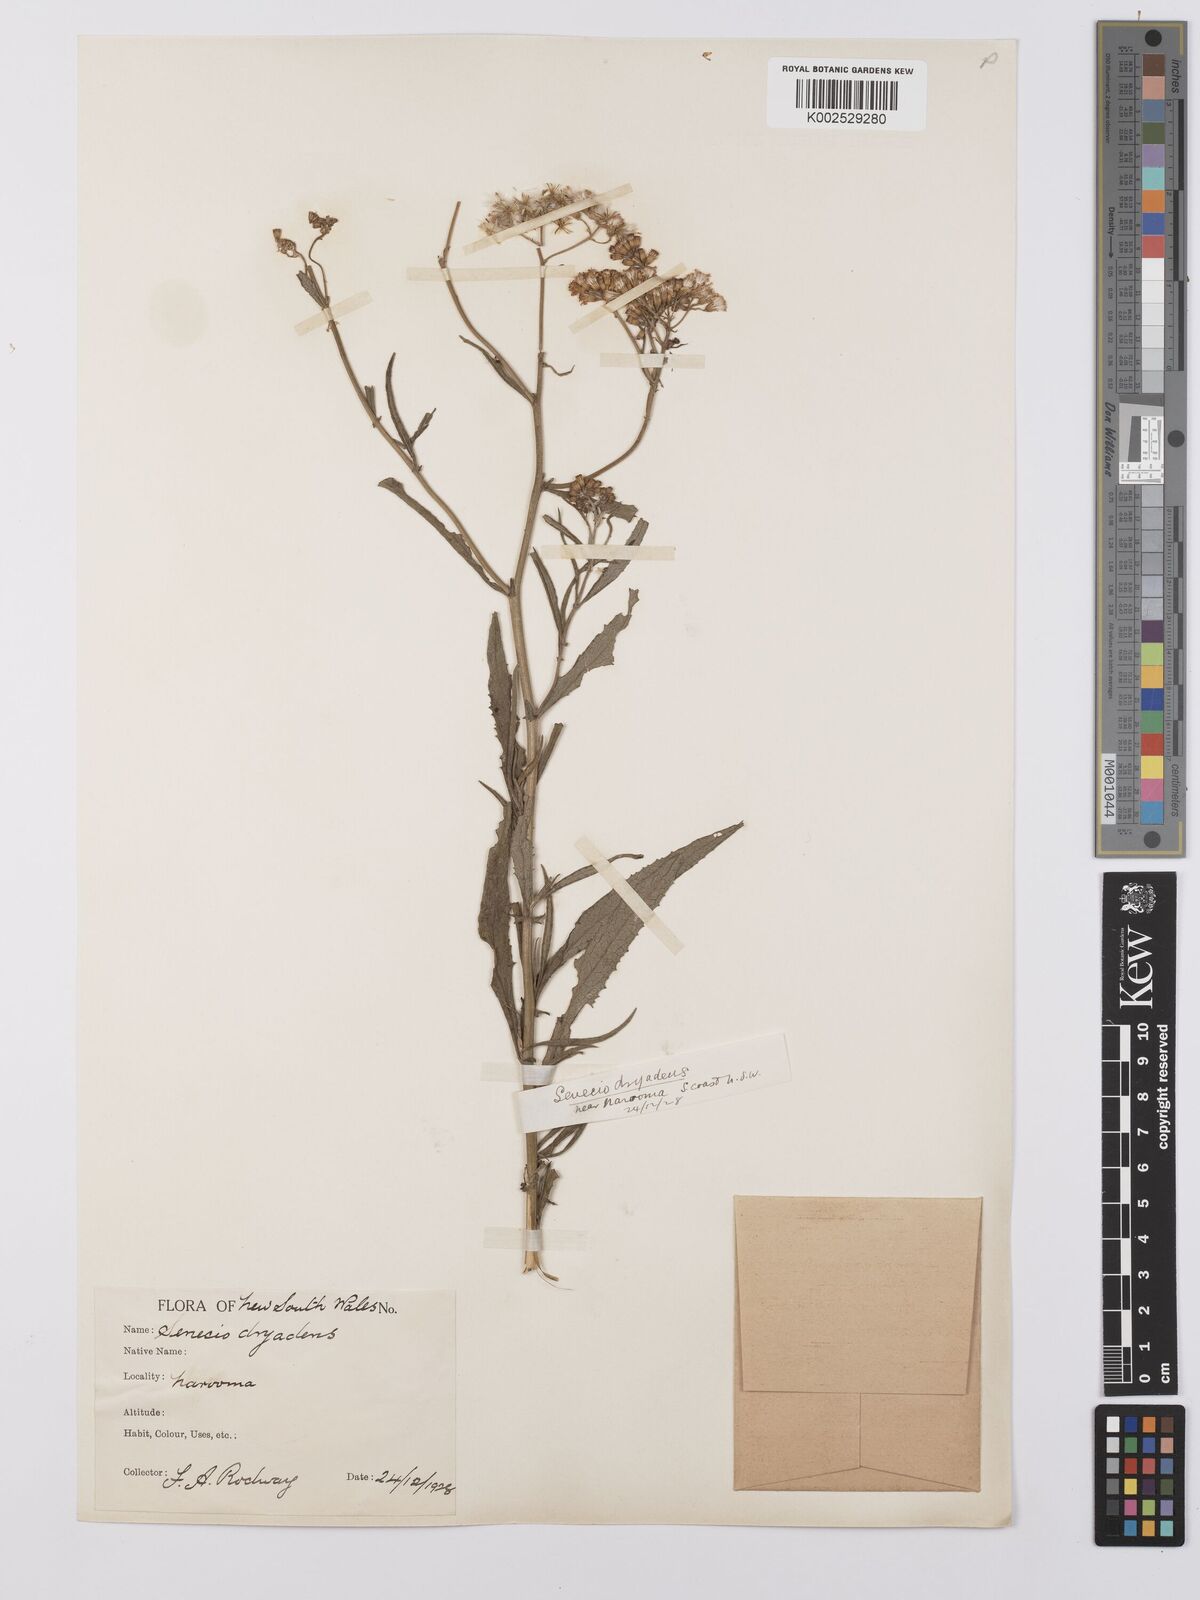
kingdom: Plantae
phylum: Tracheophyta
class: Magnoliopsida
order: Asterales
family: Asteraceae
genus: Senecio
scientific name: Senecio
